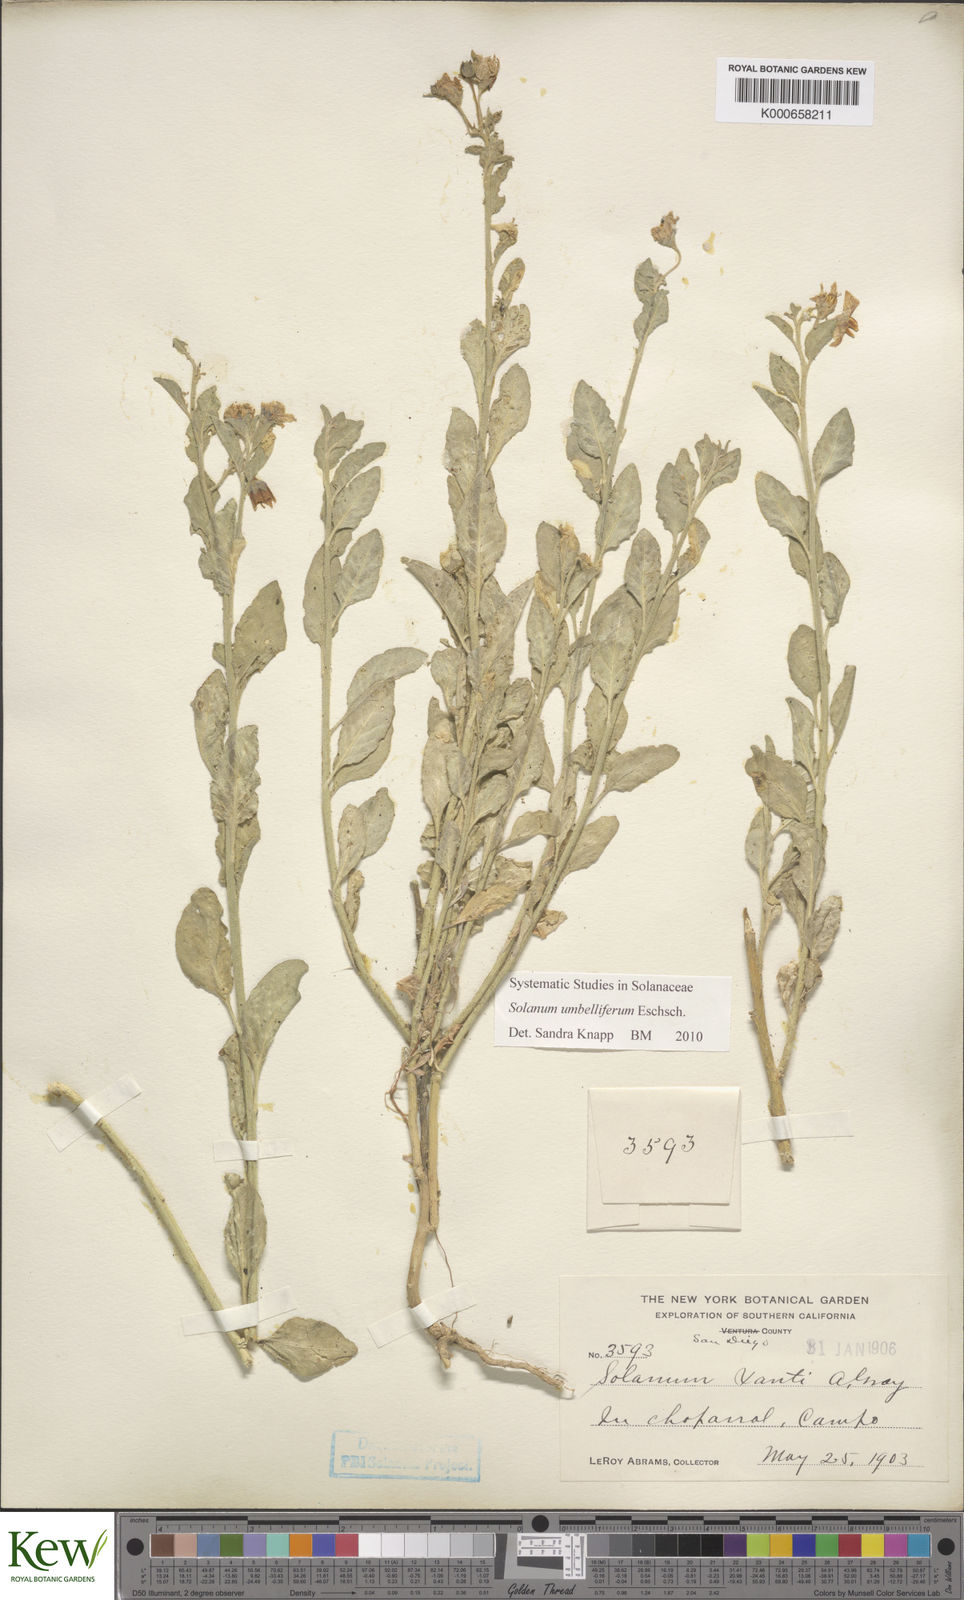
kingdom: Plantae
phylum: Tracheophyta
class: Magnoliopsida
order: Solanales
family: Solanaceae
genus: Solanum
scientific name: Solanum umbelliferum
